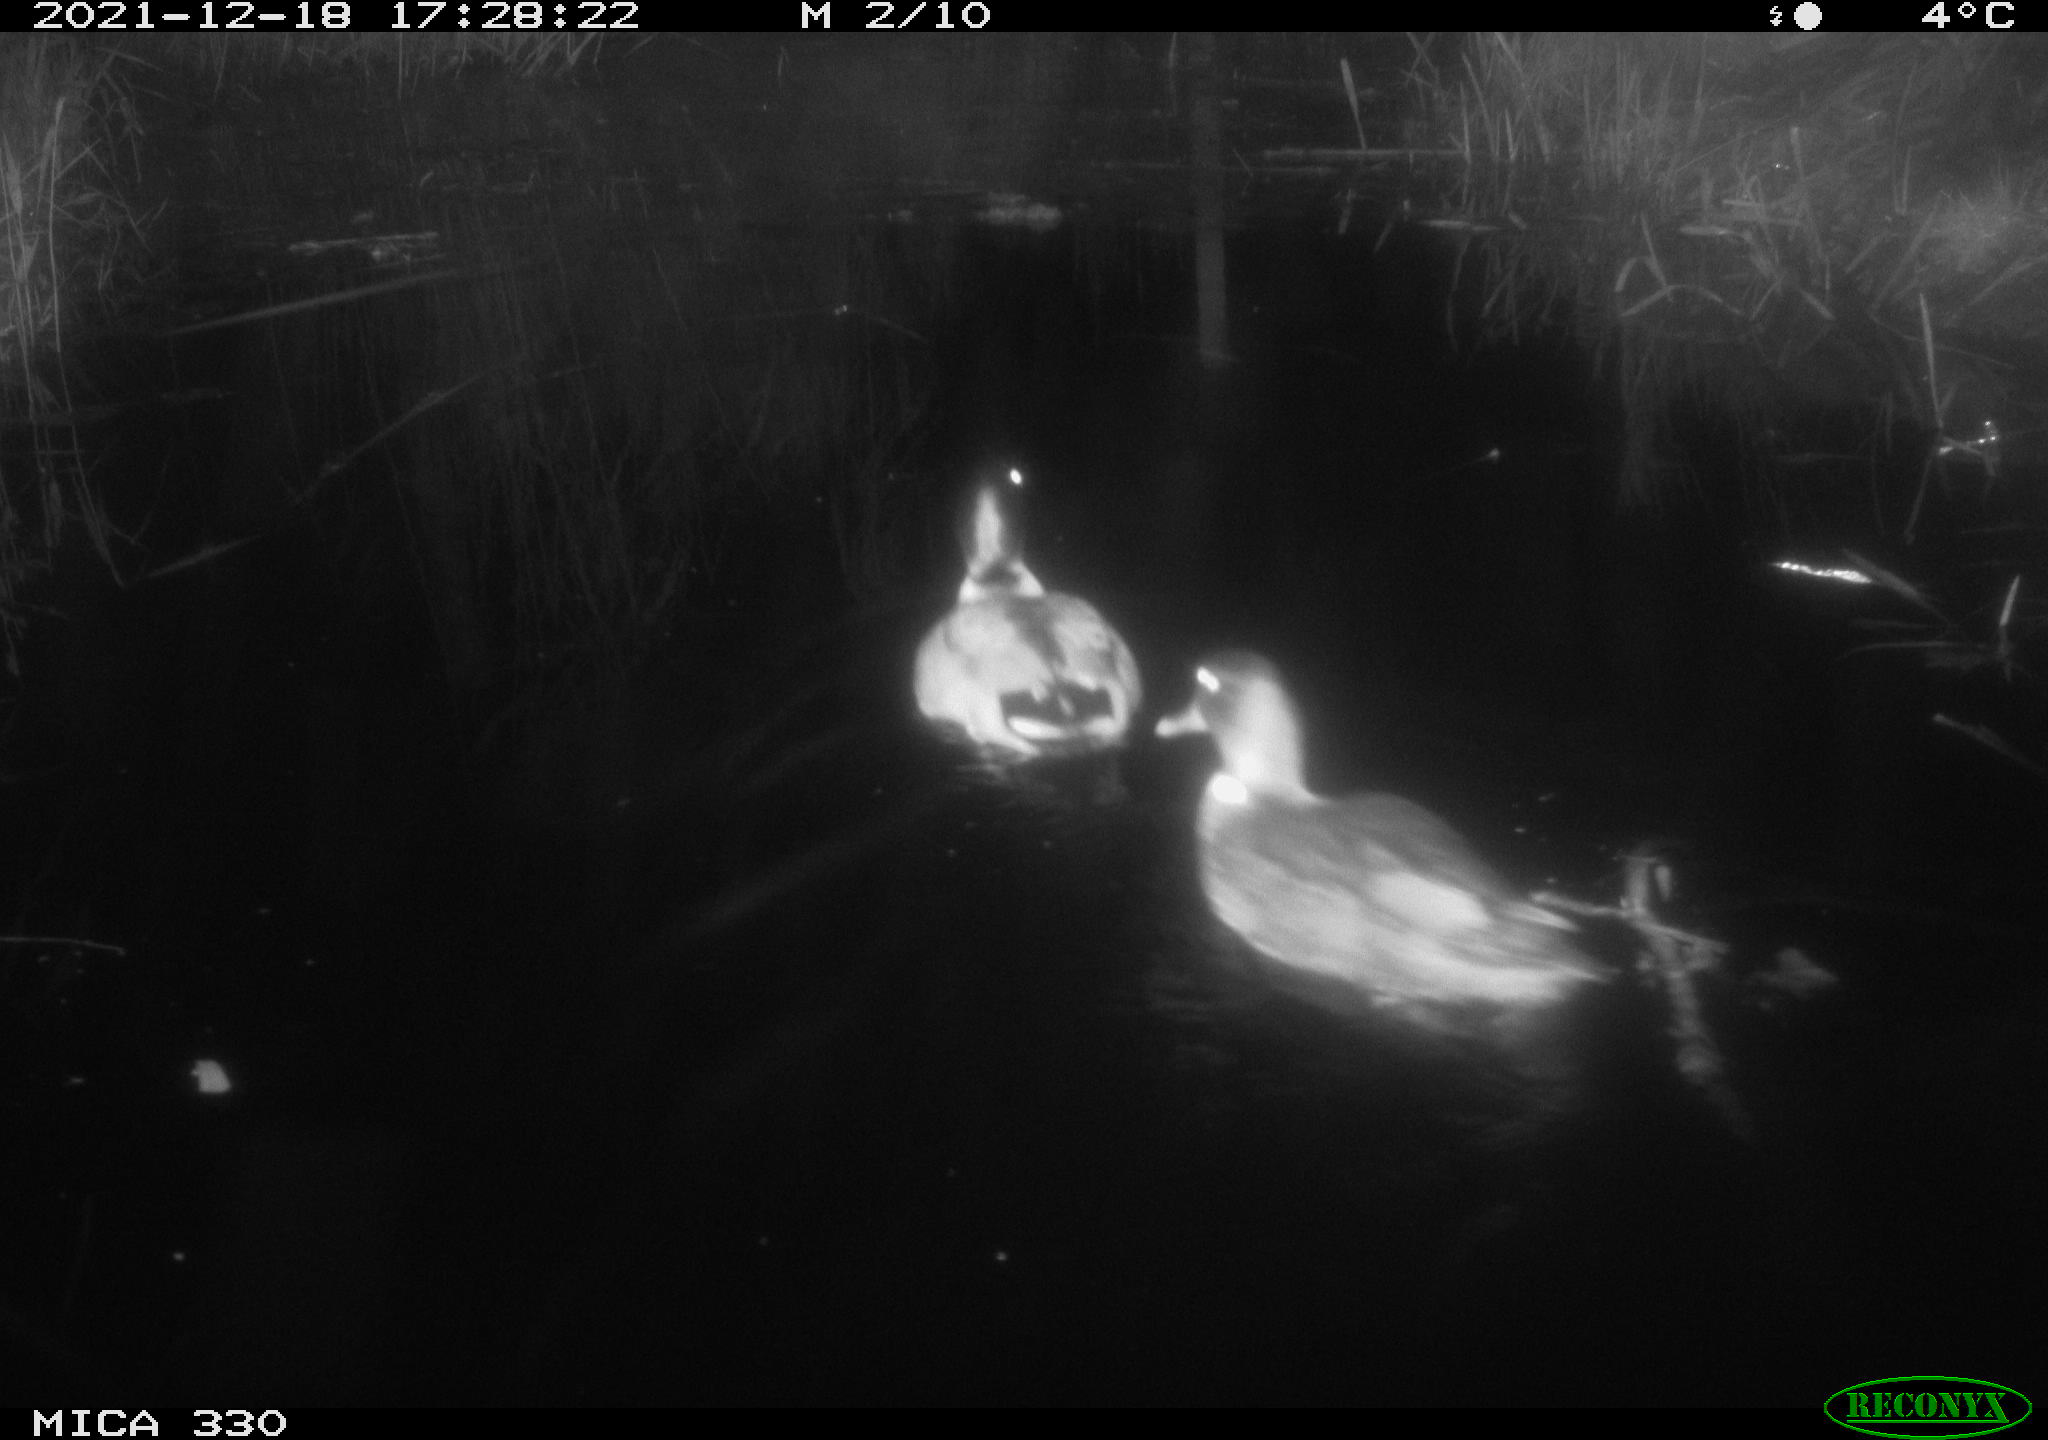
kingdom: Animalia
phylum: Chordata
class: Aves
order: Anseriformes
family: Anatidae
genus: Anas
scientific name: Anas platyrhynchos
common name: Mallard
